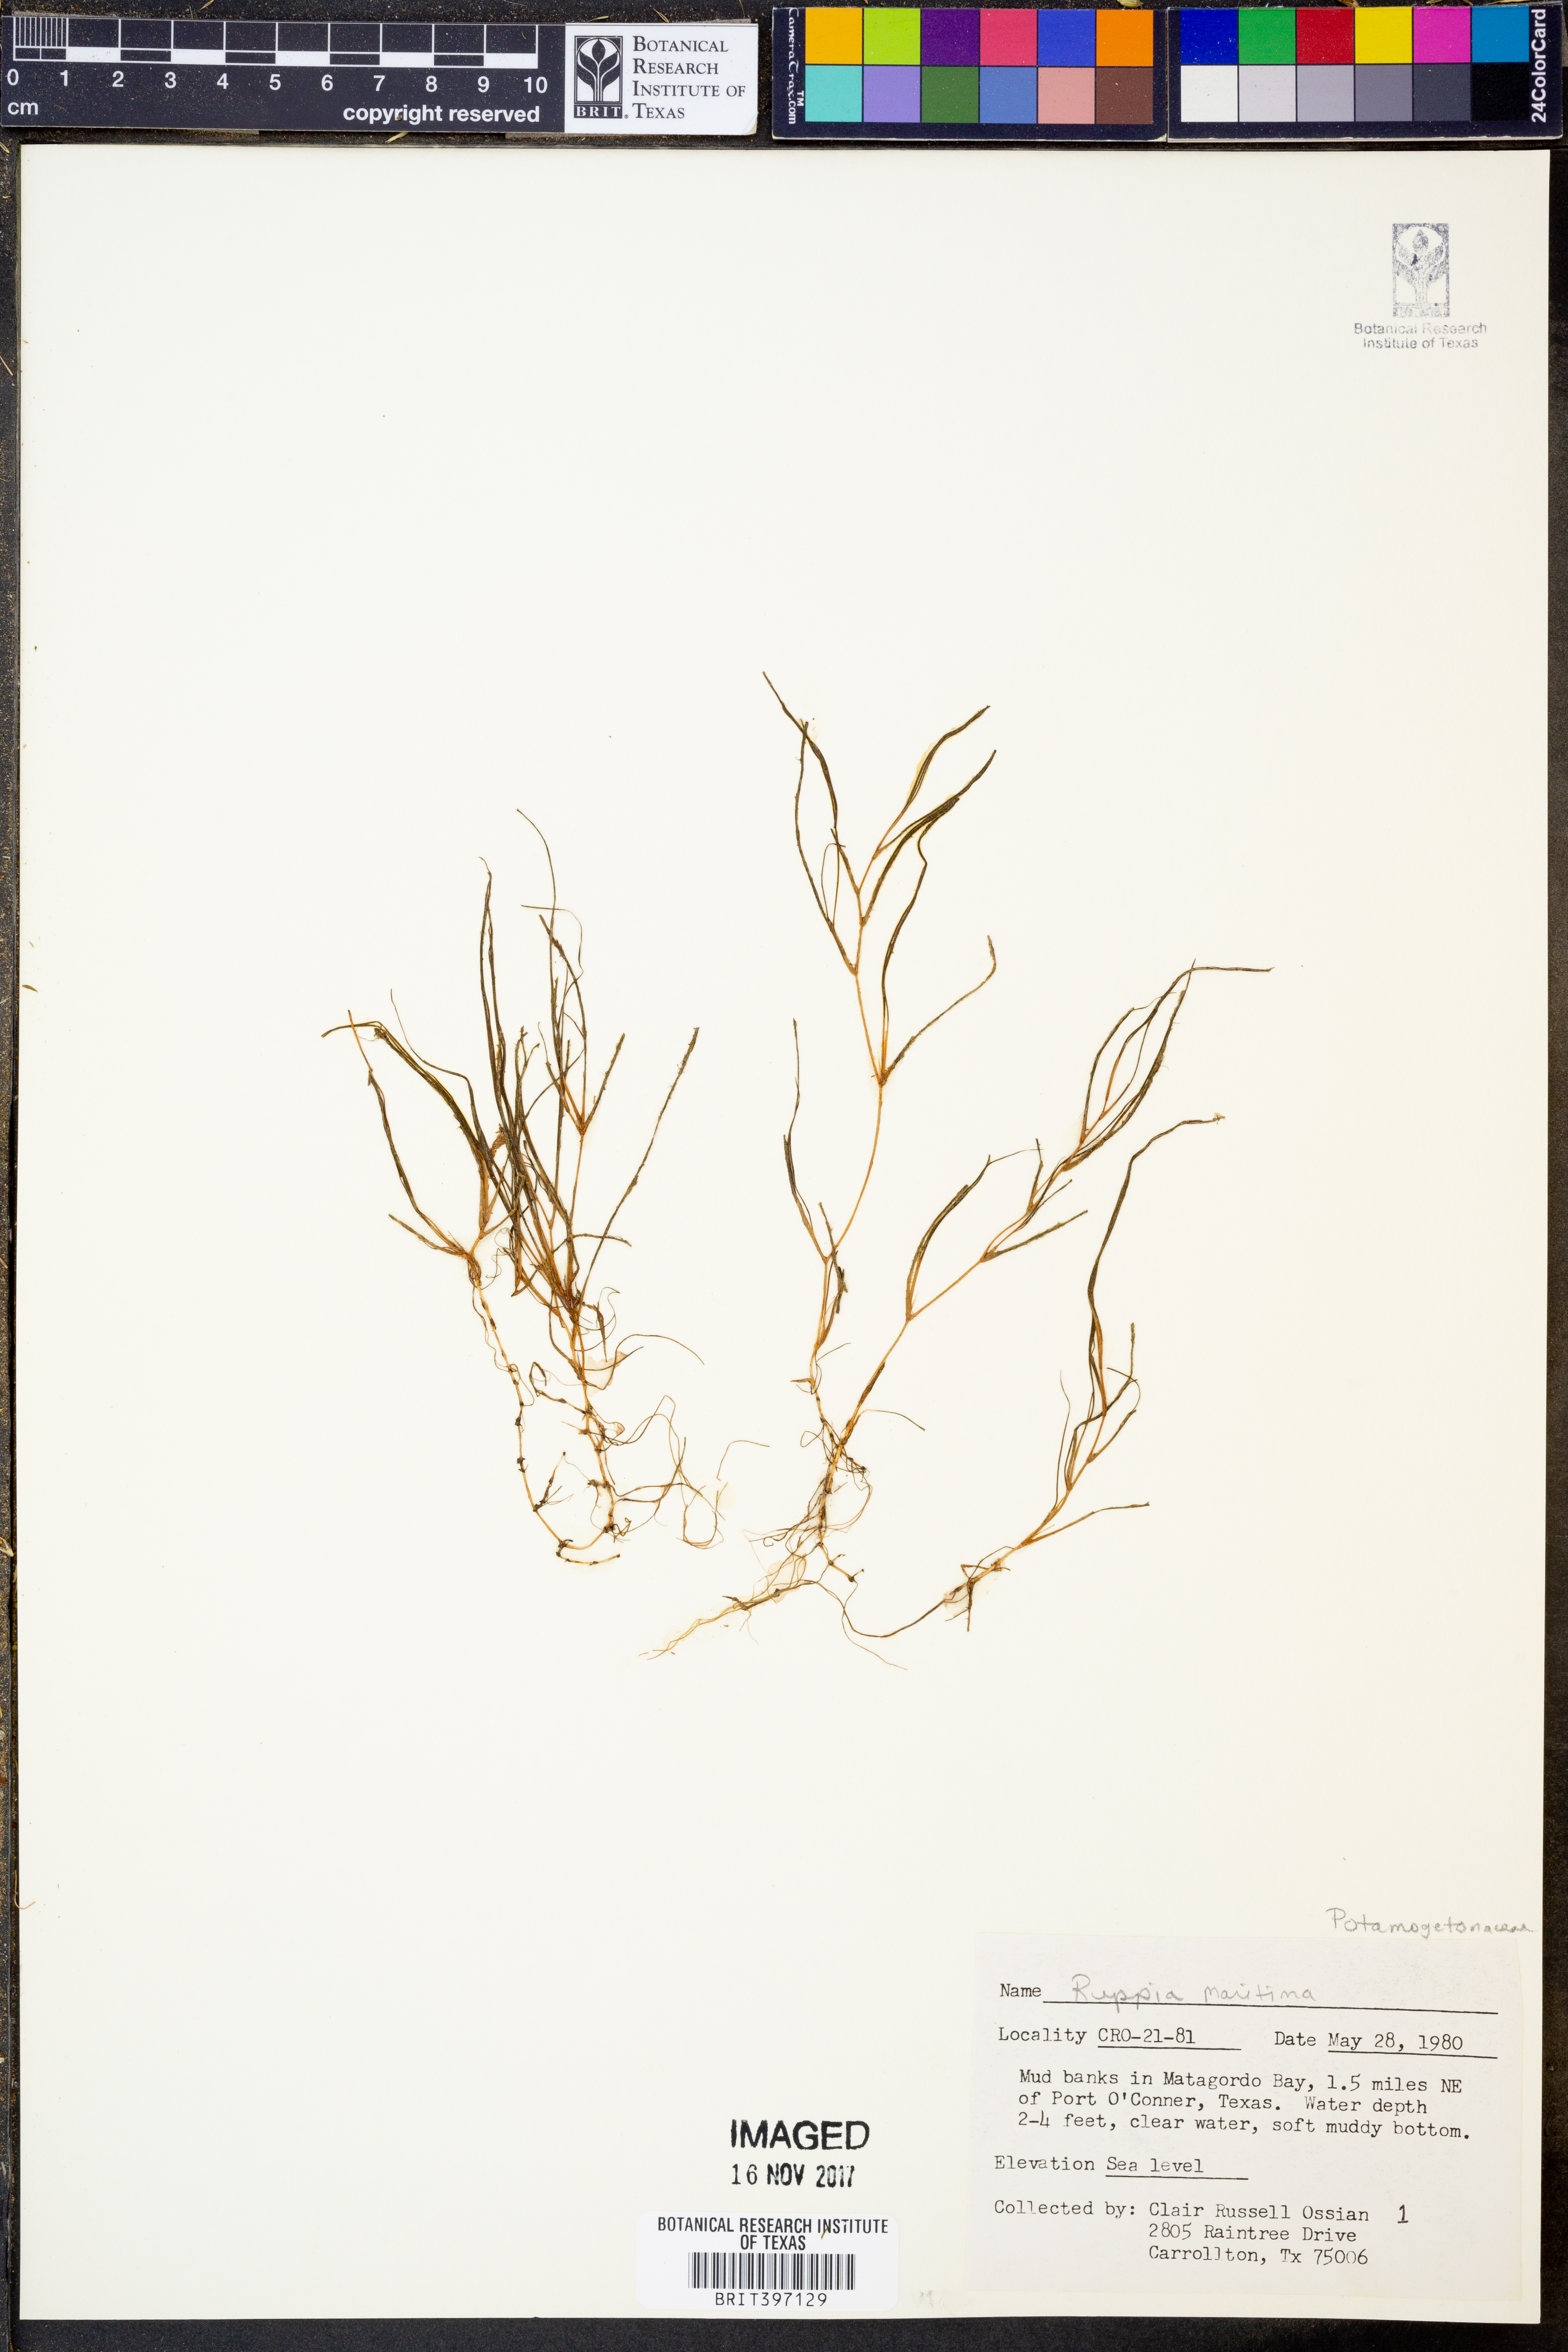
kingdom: Plantae
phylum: Tracheophyta
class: Liliopsida
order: Alismatales
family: Ruppiaceae
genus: Ruppia
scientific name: Ruppia maritima
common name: Beaked tasselweed
